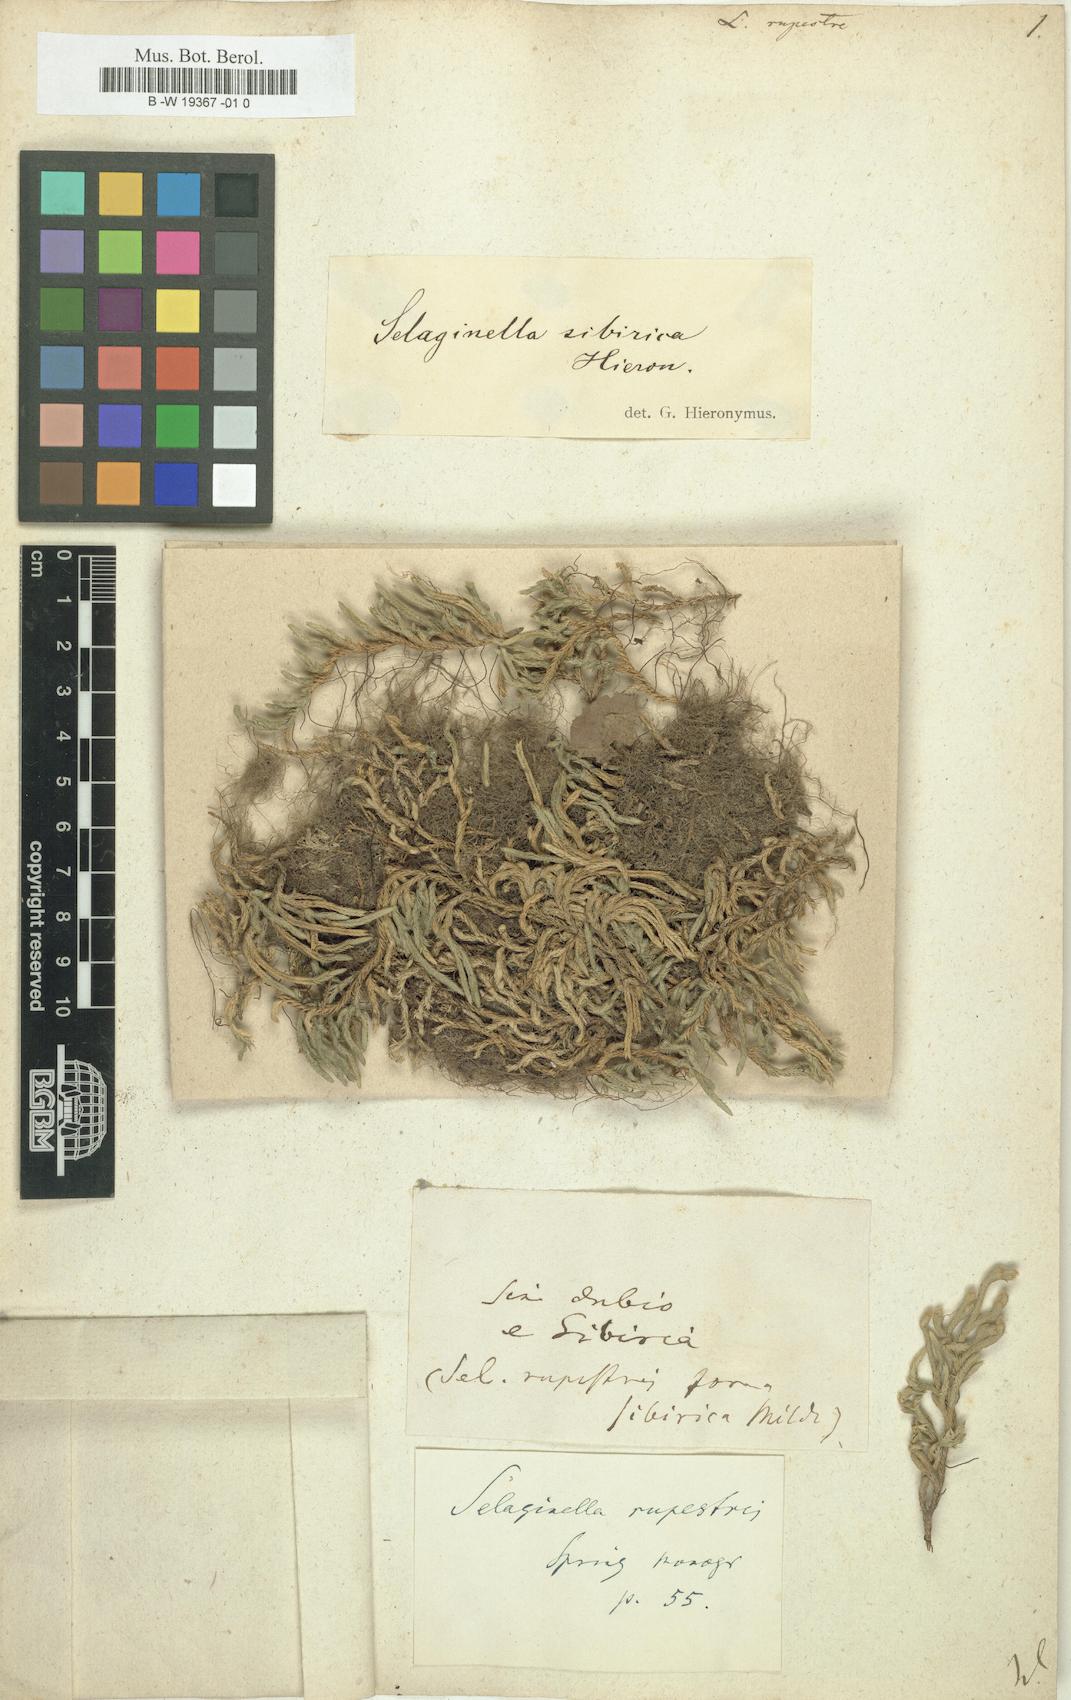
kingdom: Plantae
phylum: Tracheophyta
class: Lycopodiopsida
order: Selaginellales
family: Selaginellaceae
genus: Selaginella
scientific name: Selaginella
